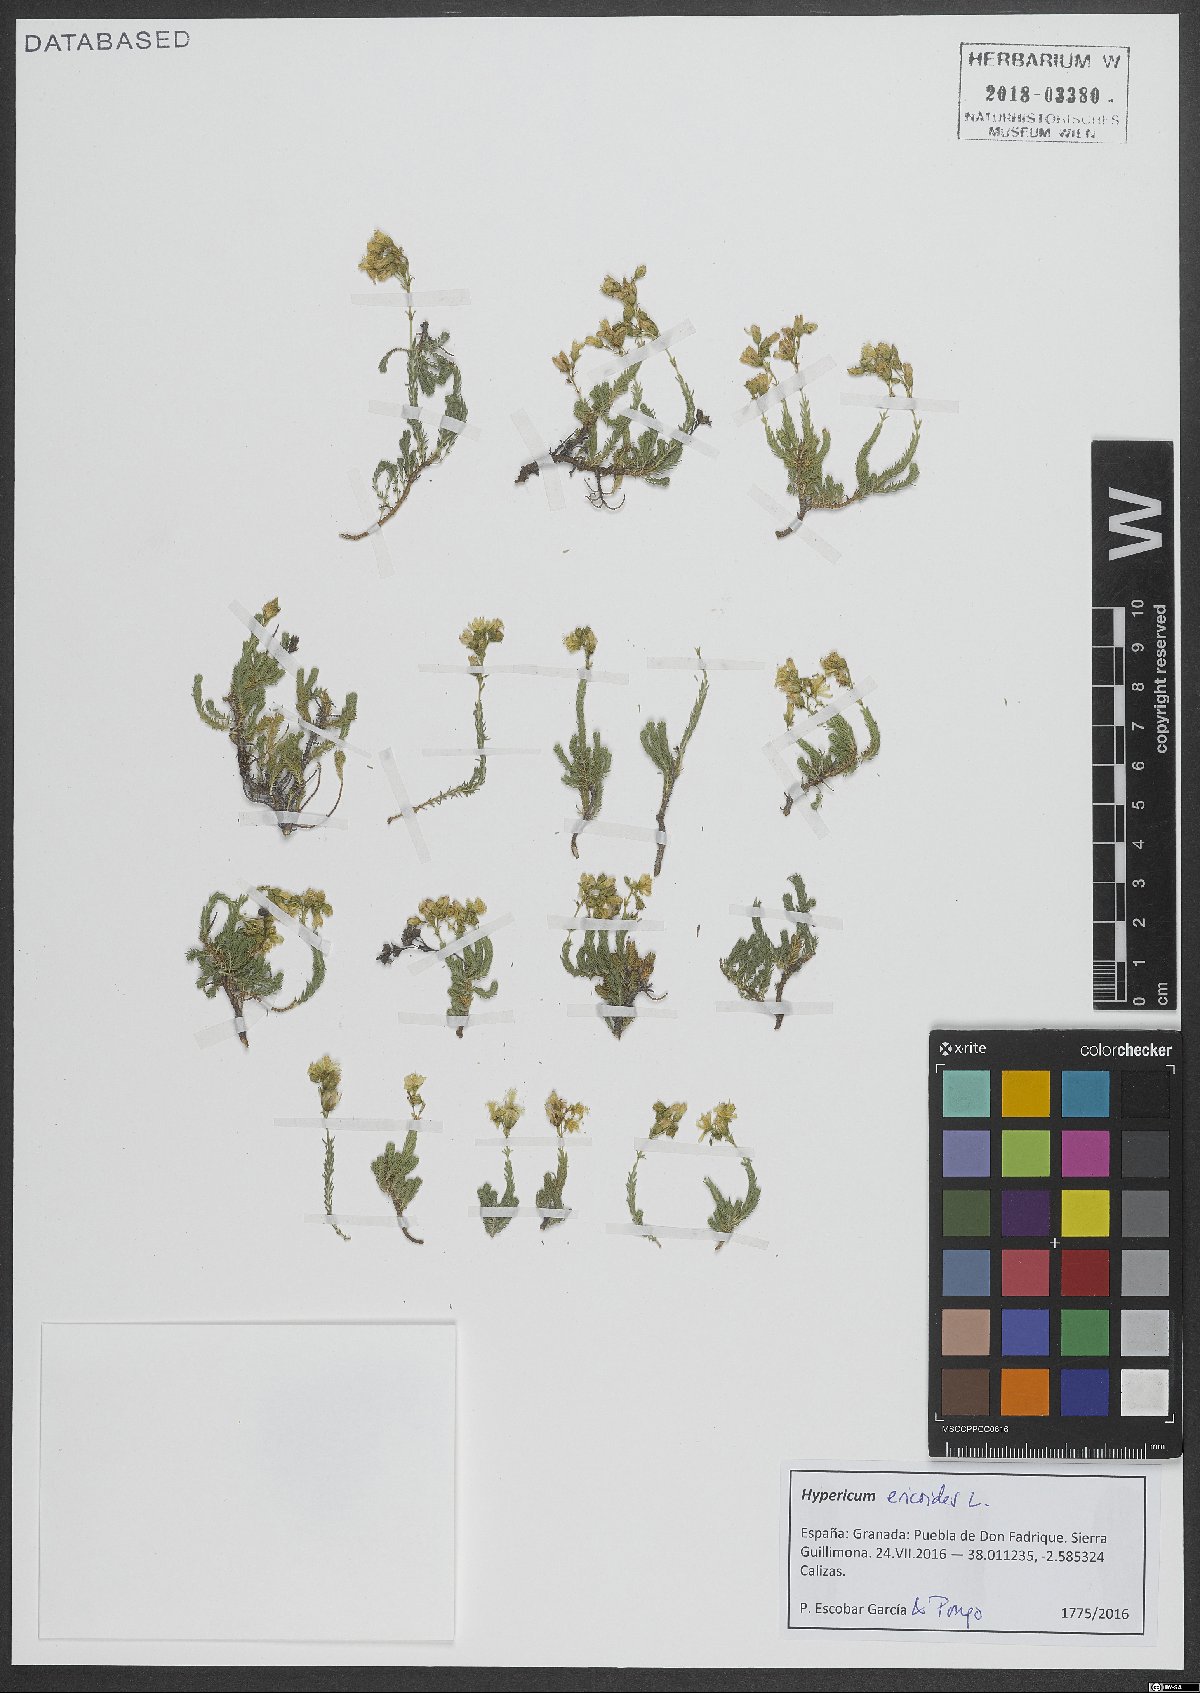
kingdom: Plantae
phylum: Tracheophyta
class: Magnoliopsida
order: Malpighiales
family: Hypericaceae
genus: Hypericum
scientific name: Hypericum ericoides
